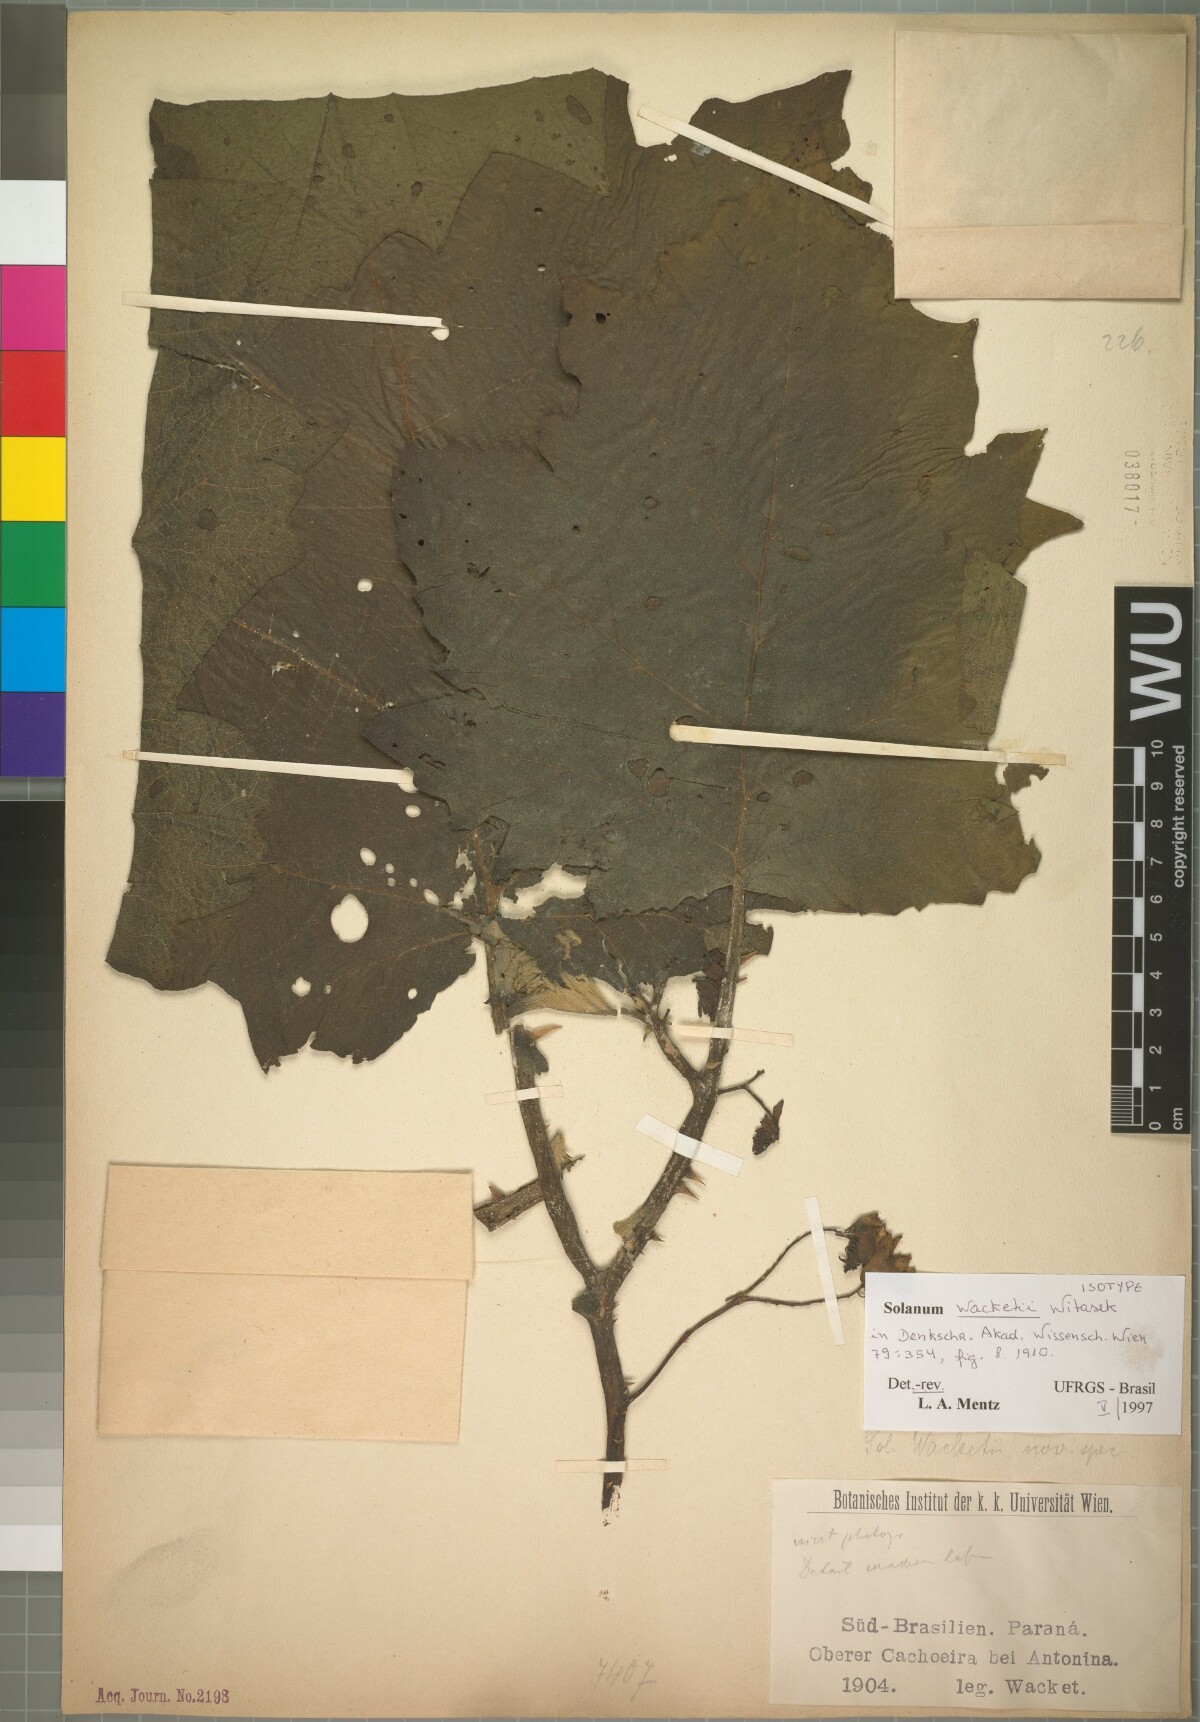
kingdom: Plantae
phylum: Tracheophyta
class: Magnoliopsida
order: Solanales
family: Solanaceae
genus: Solanum
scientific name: Solanum wacketii
